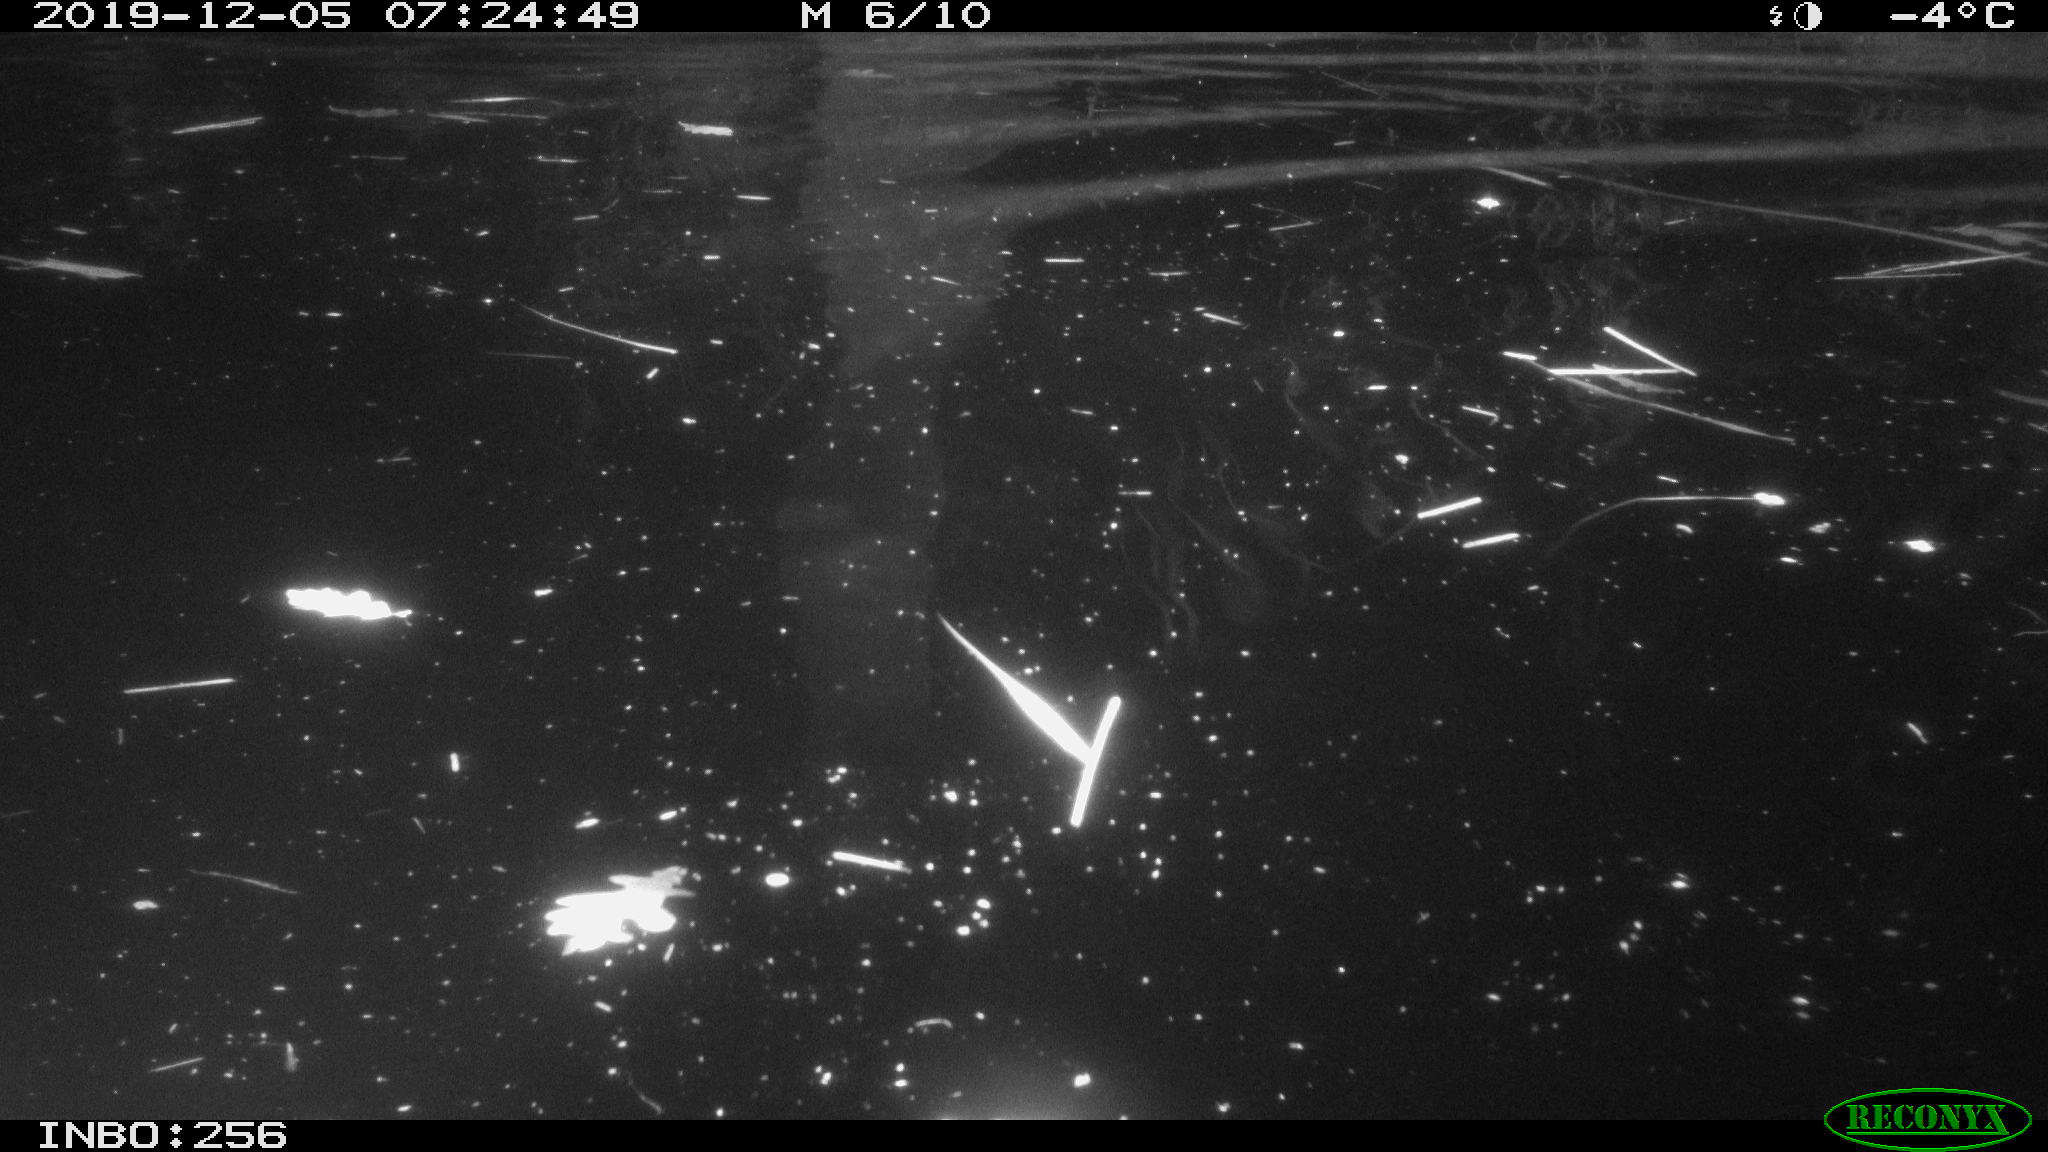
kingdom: Animalia
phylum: Chordata
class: Aves
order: Anseriformes
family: Anatidae
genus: Anas
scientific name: Anas platyrhynchos
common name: Mallard
